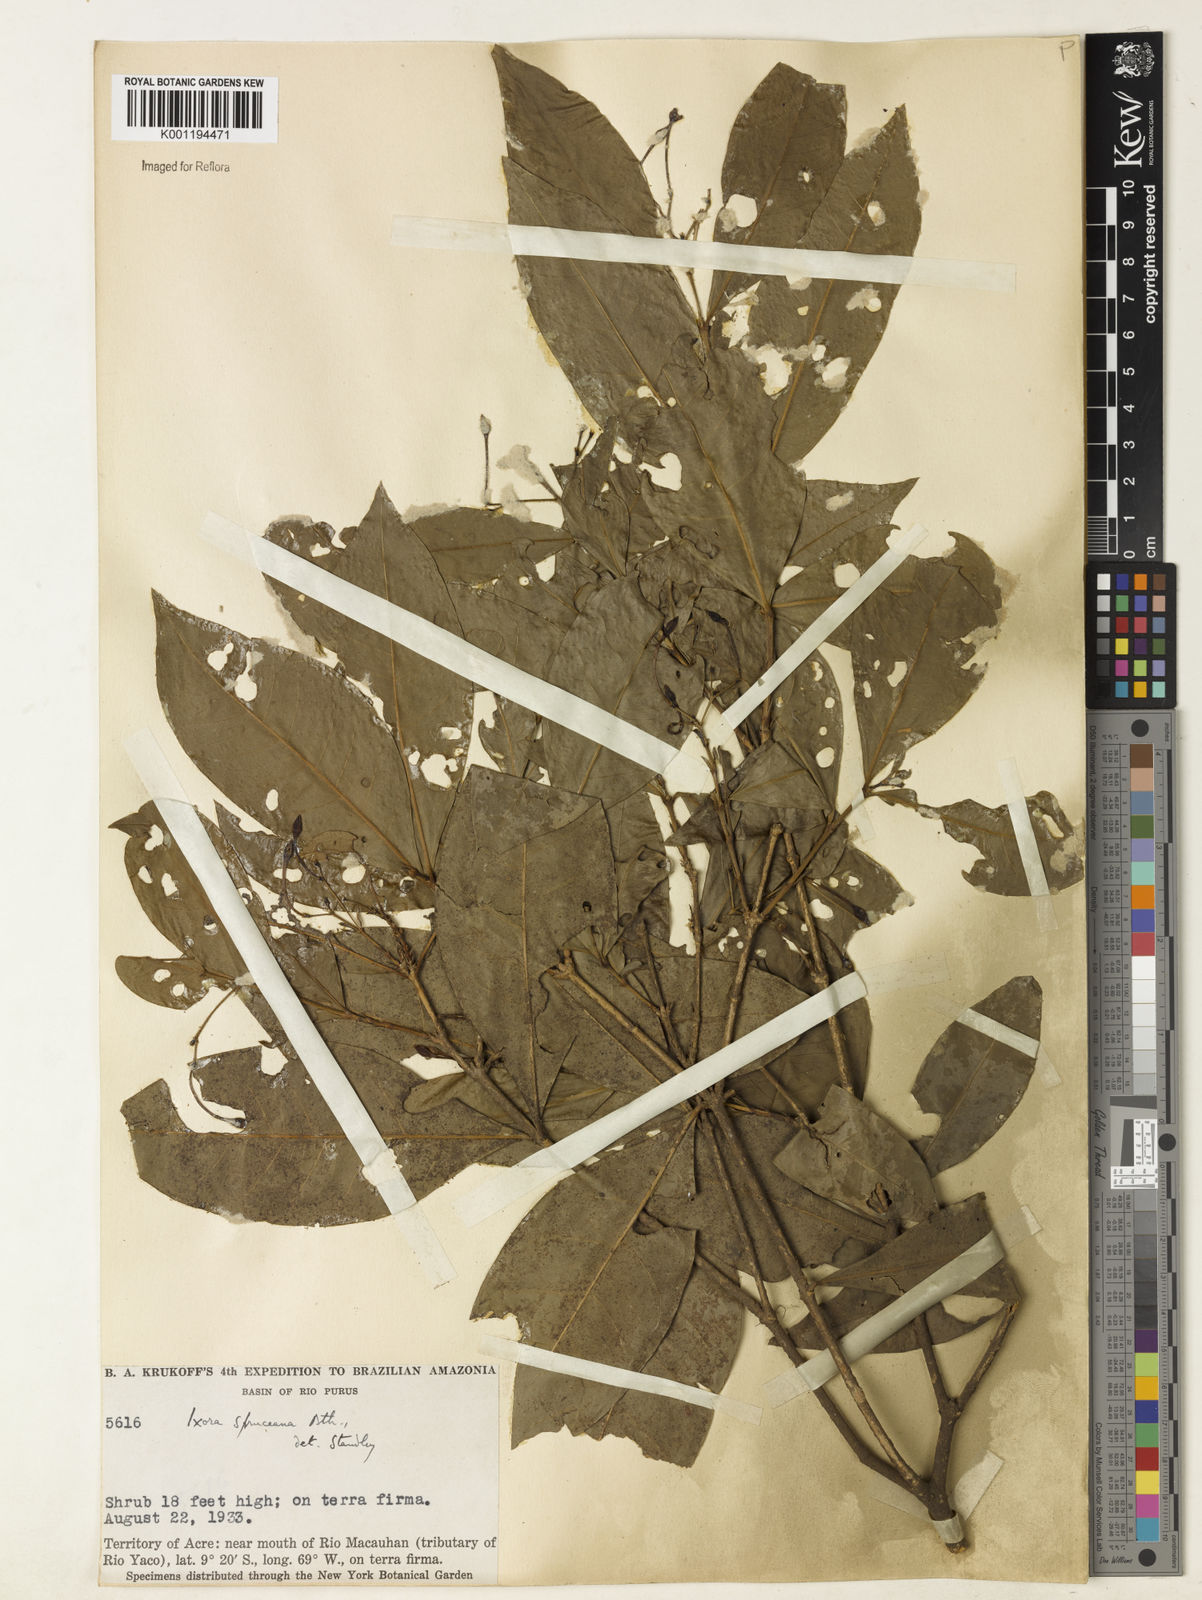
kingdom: Plantae
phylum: Tracheophyta
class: Magnoliopsida
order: Gentianales
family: Rubiaceae
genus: Ixora
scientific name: Ixora
